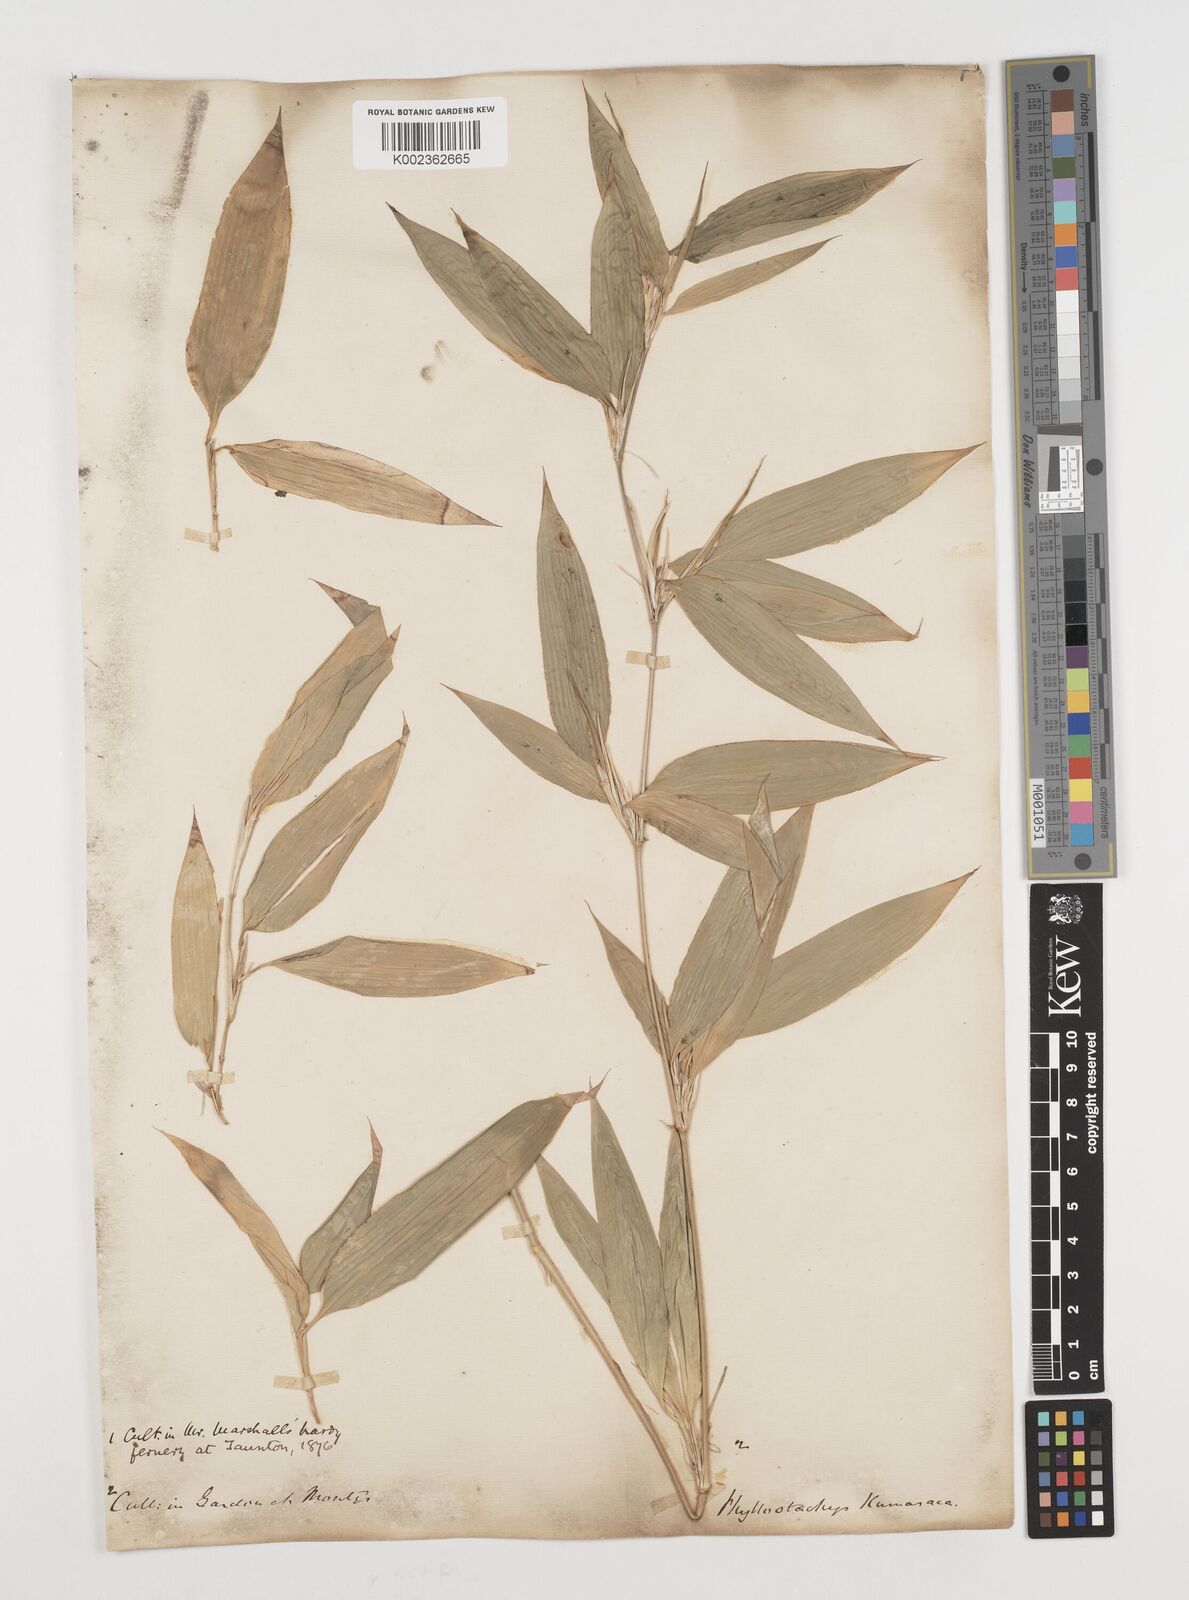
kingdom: Plantae
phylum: Tracheophyta
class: Liliopsida
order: Poales
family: Poaceae
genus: Shibataea
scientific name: Shibataea kumasasa
